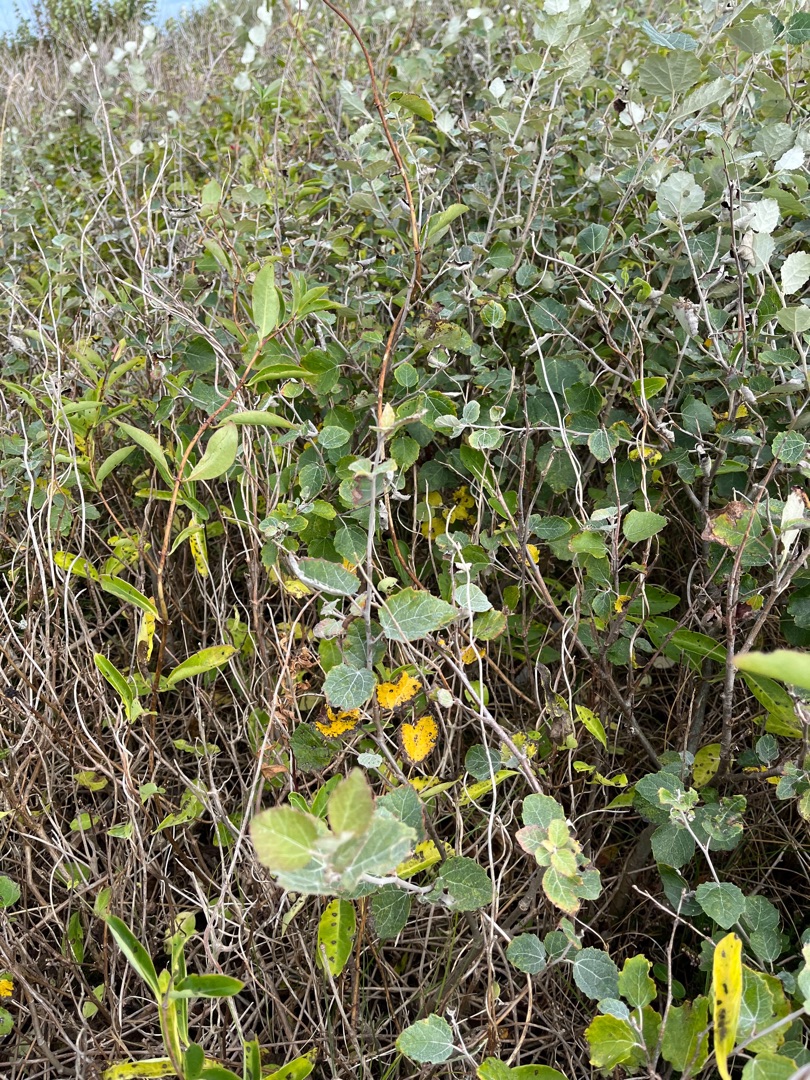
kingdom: Plantae
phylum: Tracheophyta
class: Magnoliopsida
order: Malpighiales
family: Salicaceae
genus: Populus
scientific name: Populus canescens
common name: Grå-poppel
